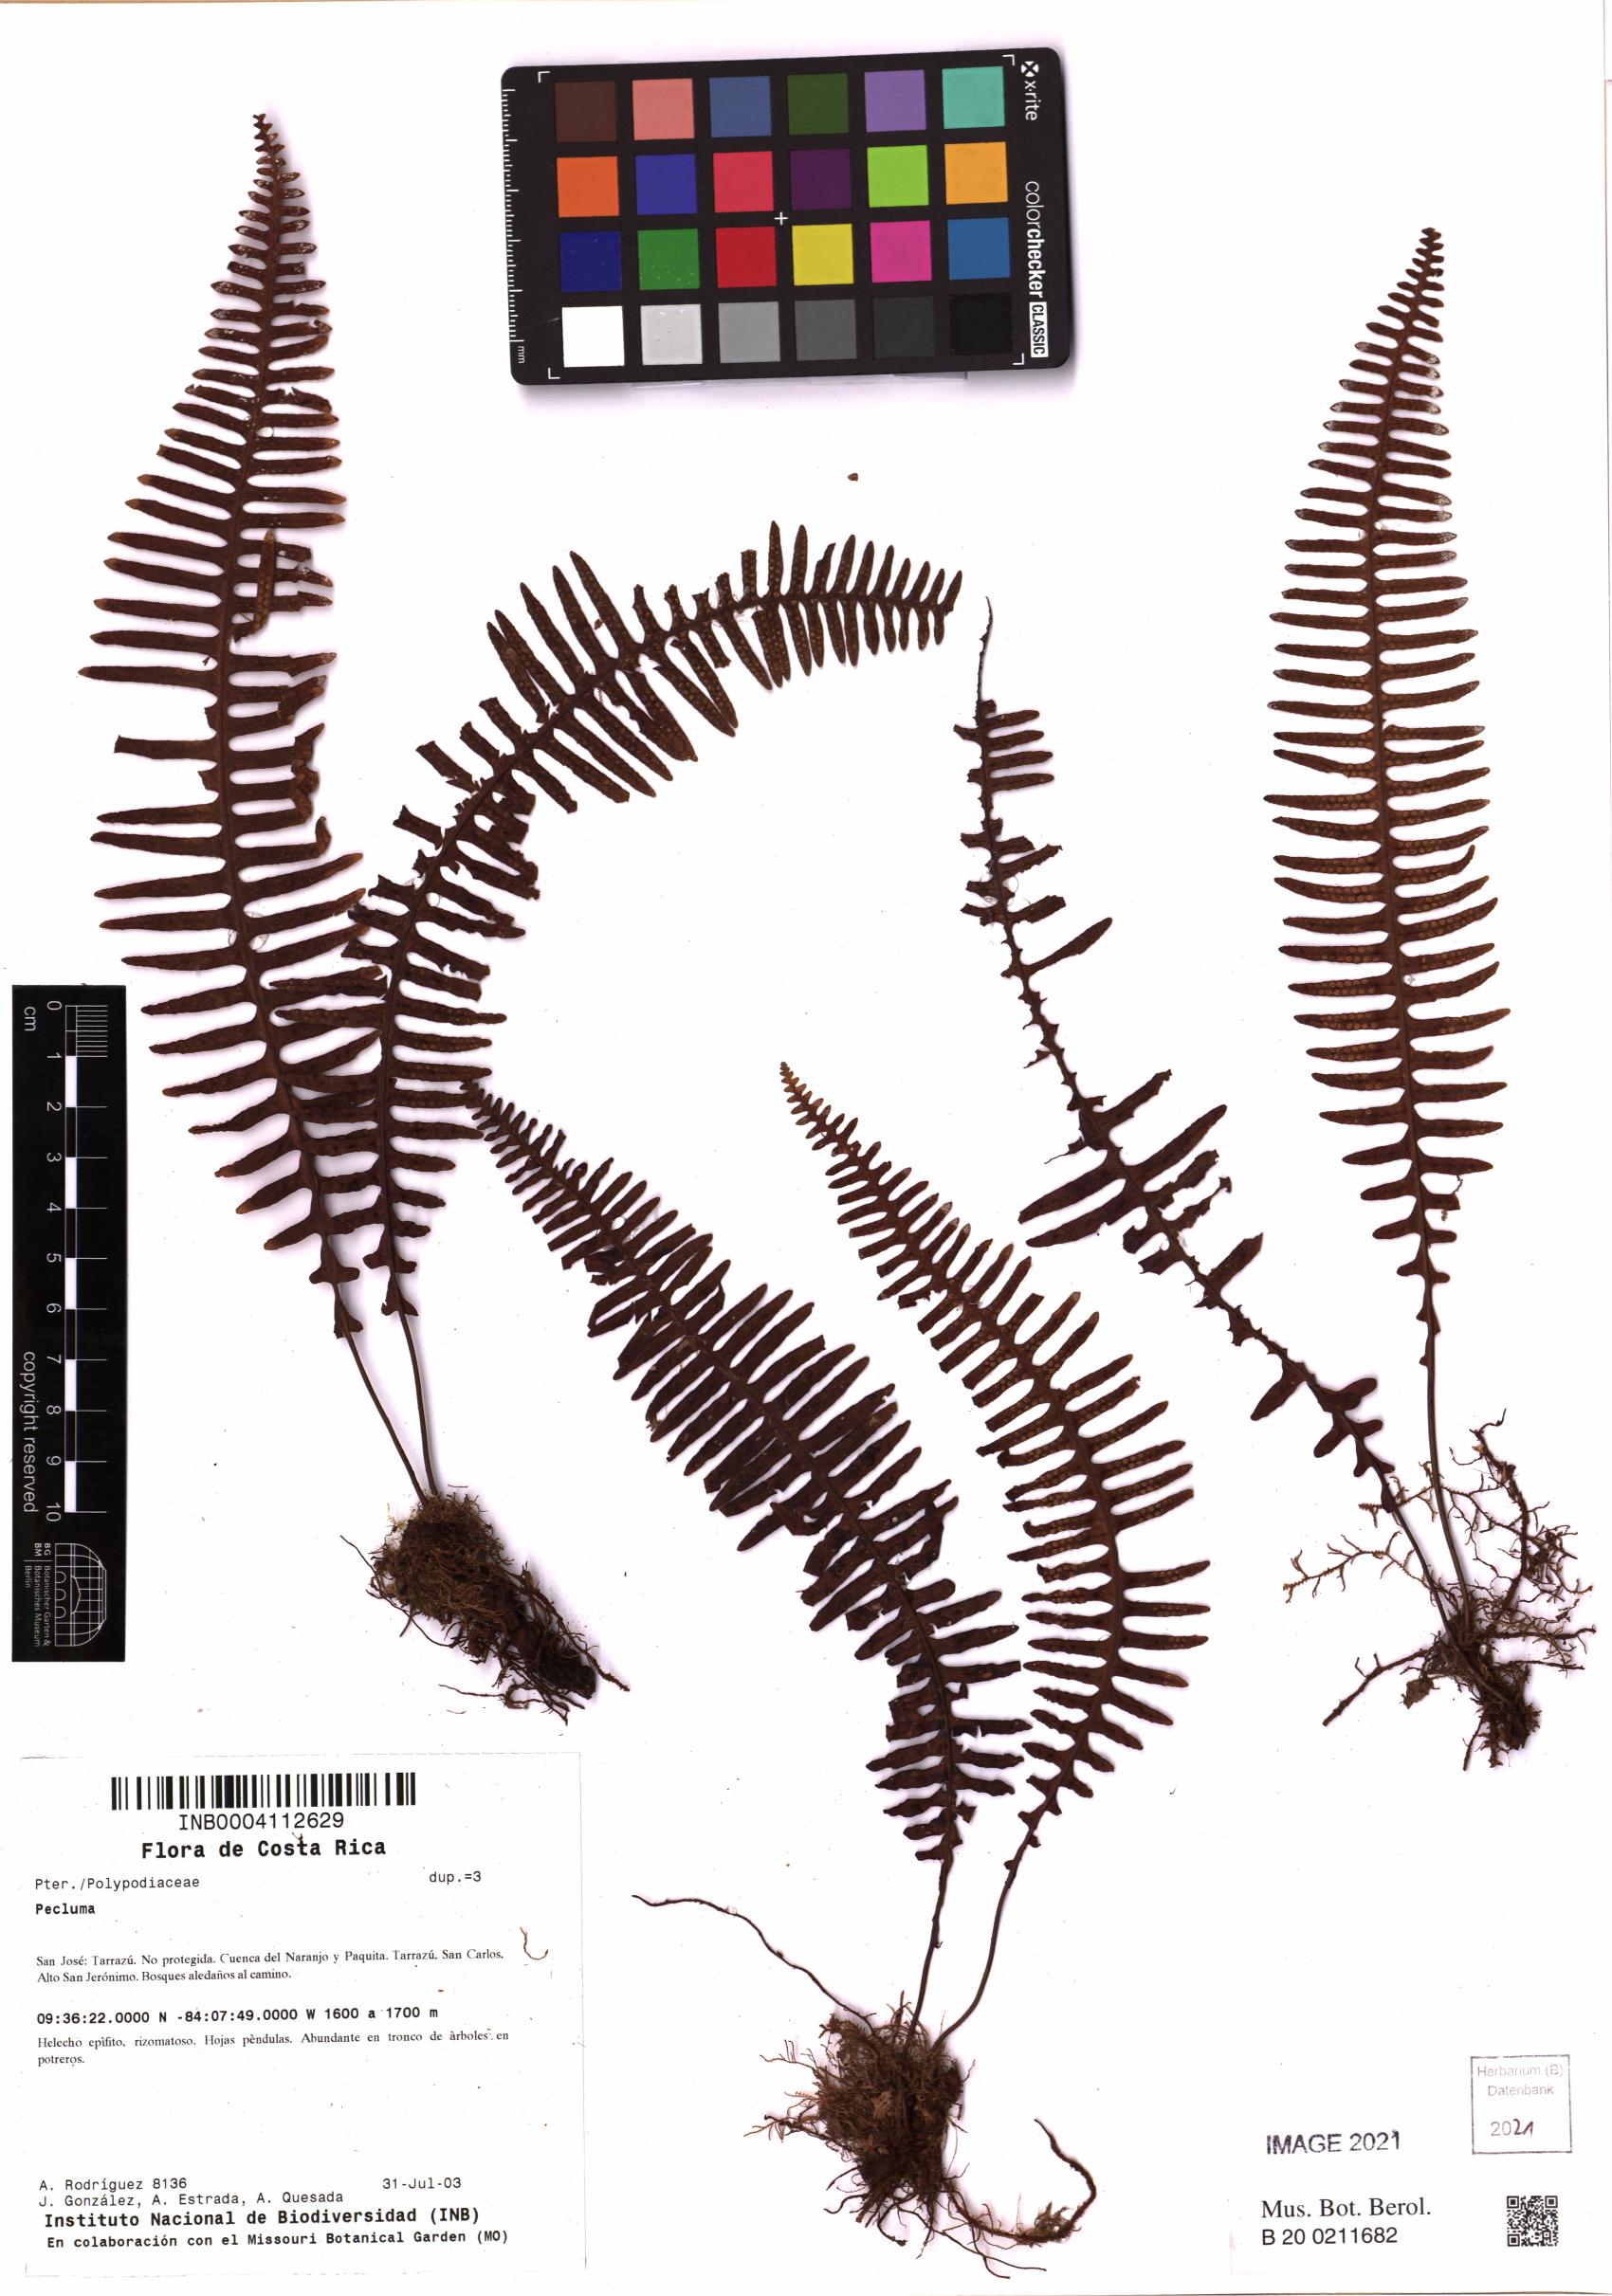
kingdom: Plantae
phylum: Tracheophyta
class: Polypodiopsida
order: Polypodiales
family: Polypodiaceae
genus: Pecluma
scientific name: Pecluma
